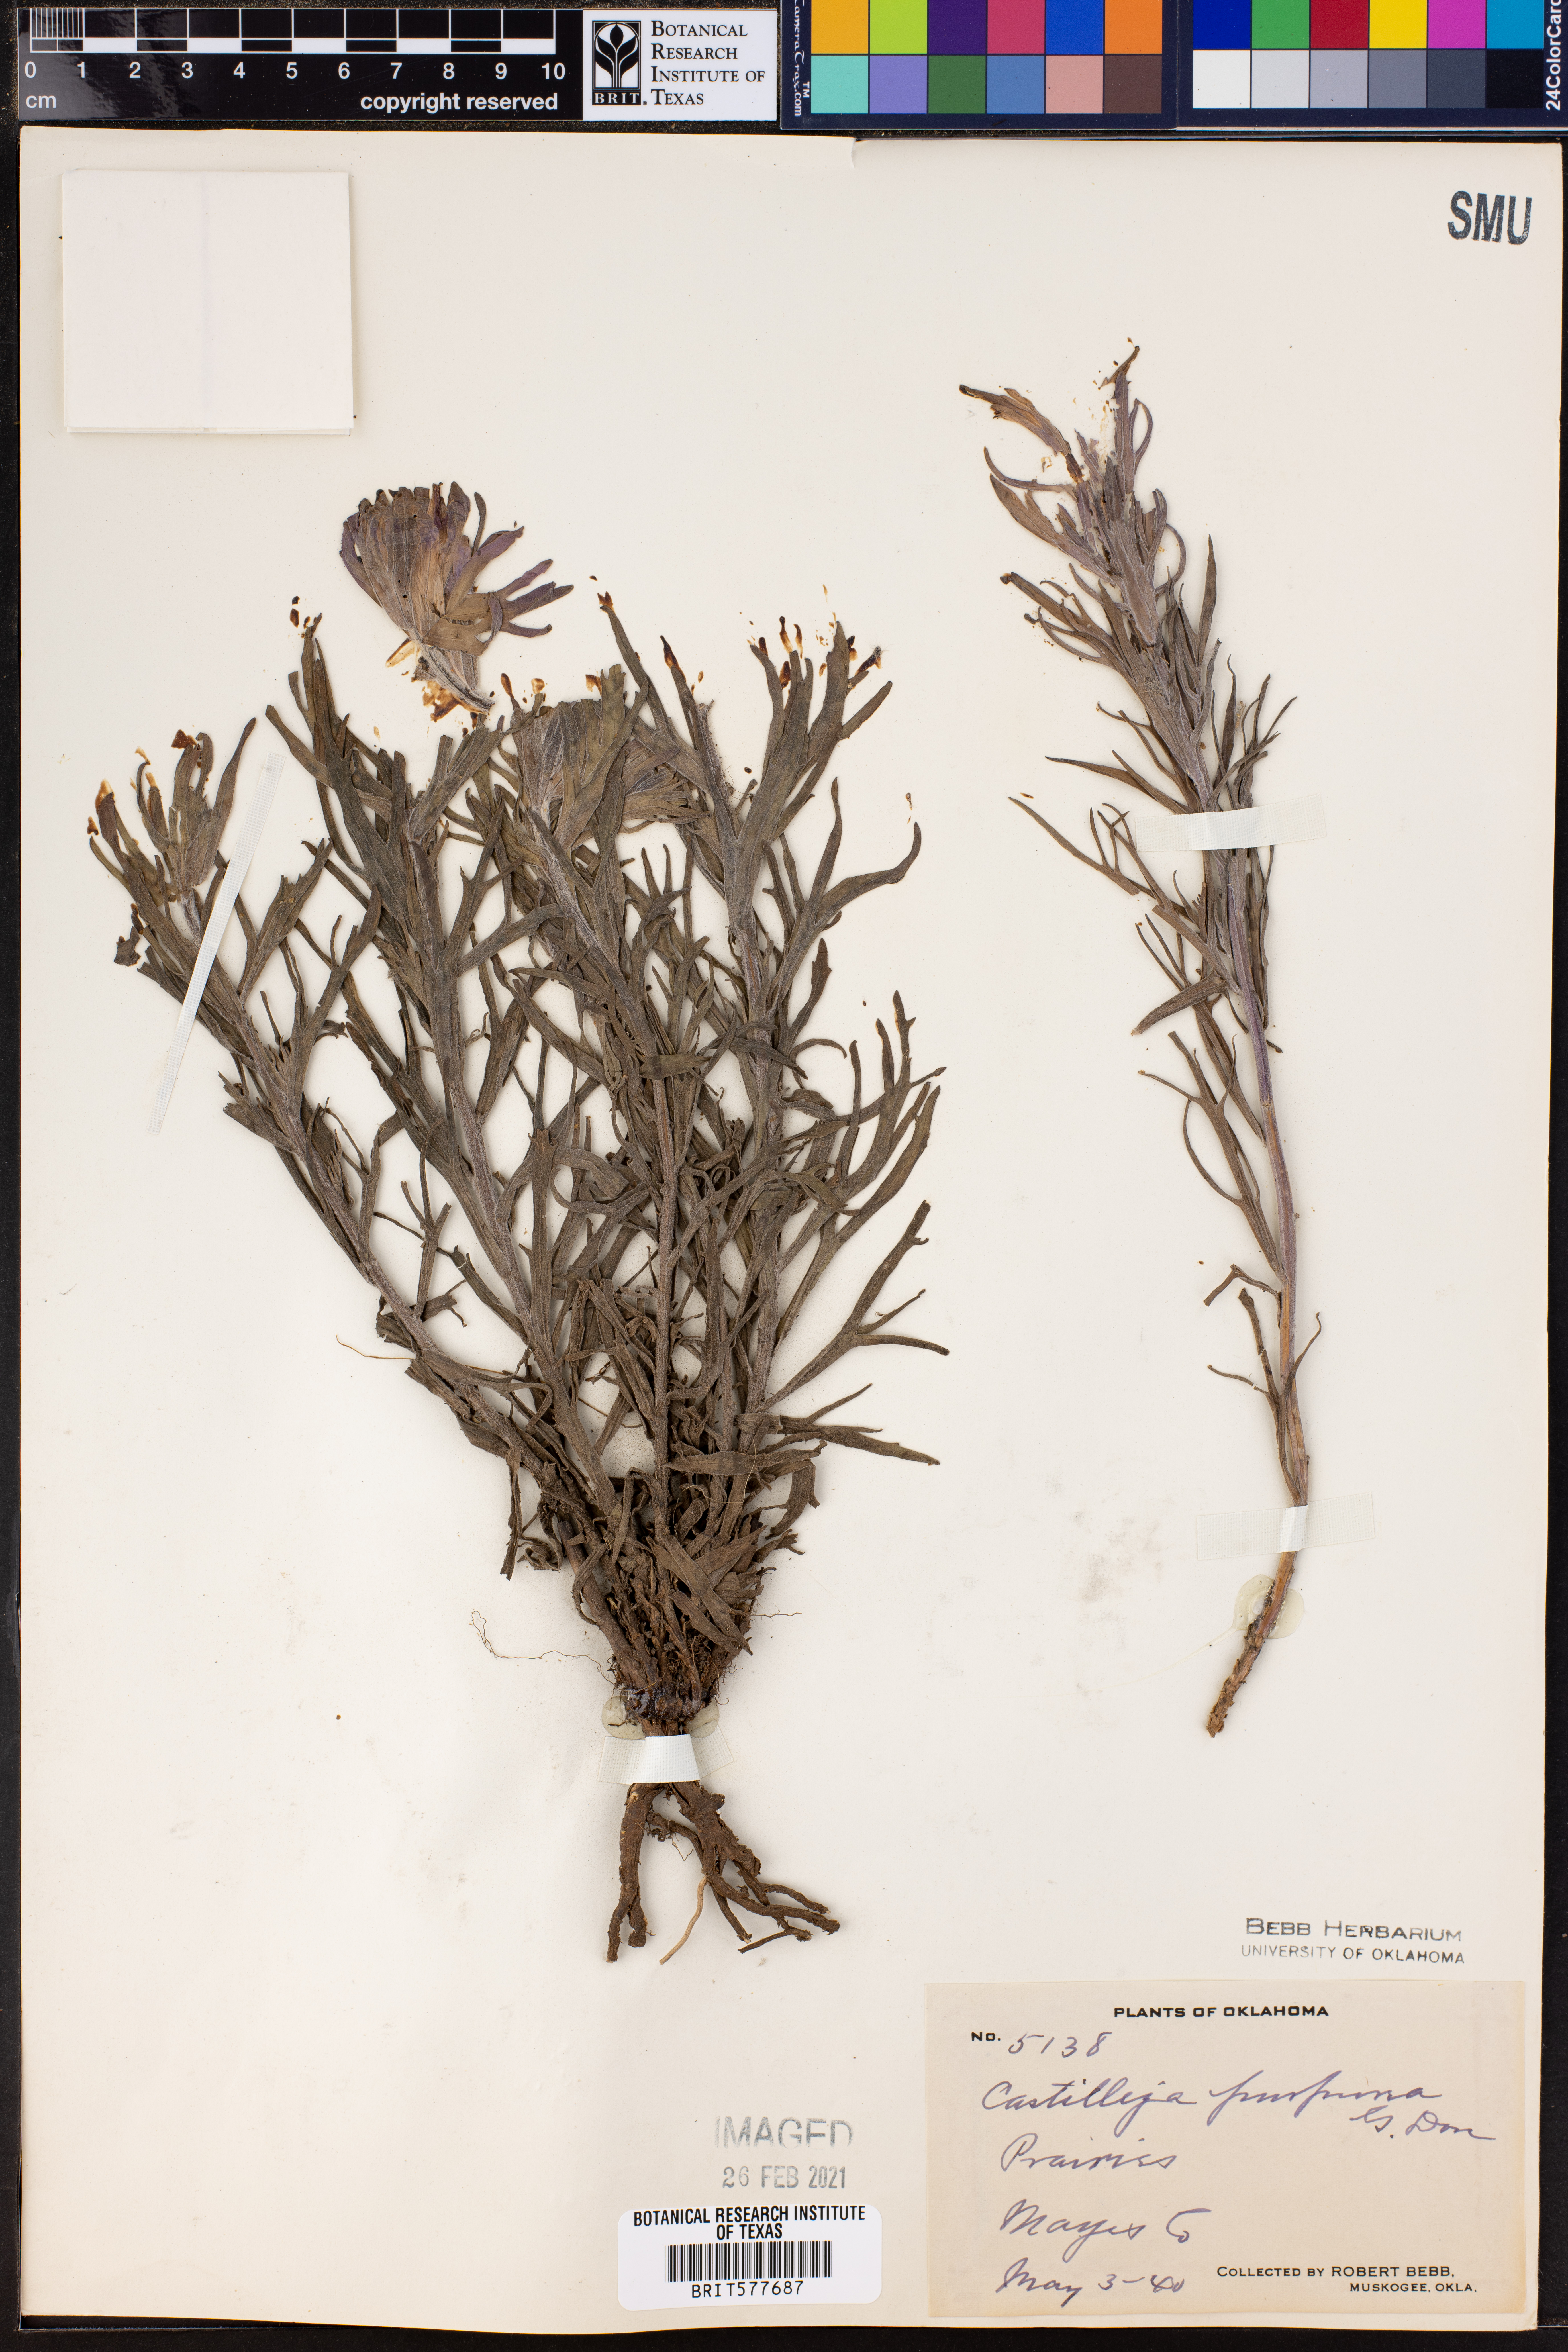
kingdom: Plantae
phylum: Tracheophyta
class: Magnoliopsida
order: Lamiales
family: Orobanchaceae
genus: Castilleja
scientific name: Castilleja purpurea
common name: Plains paintbrush
